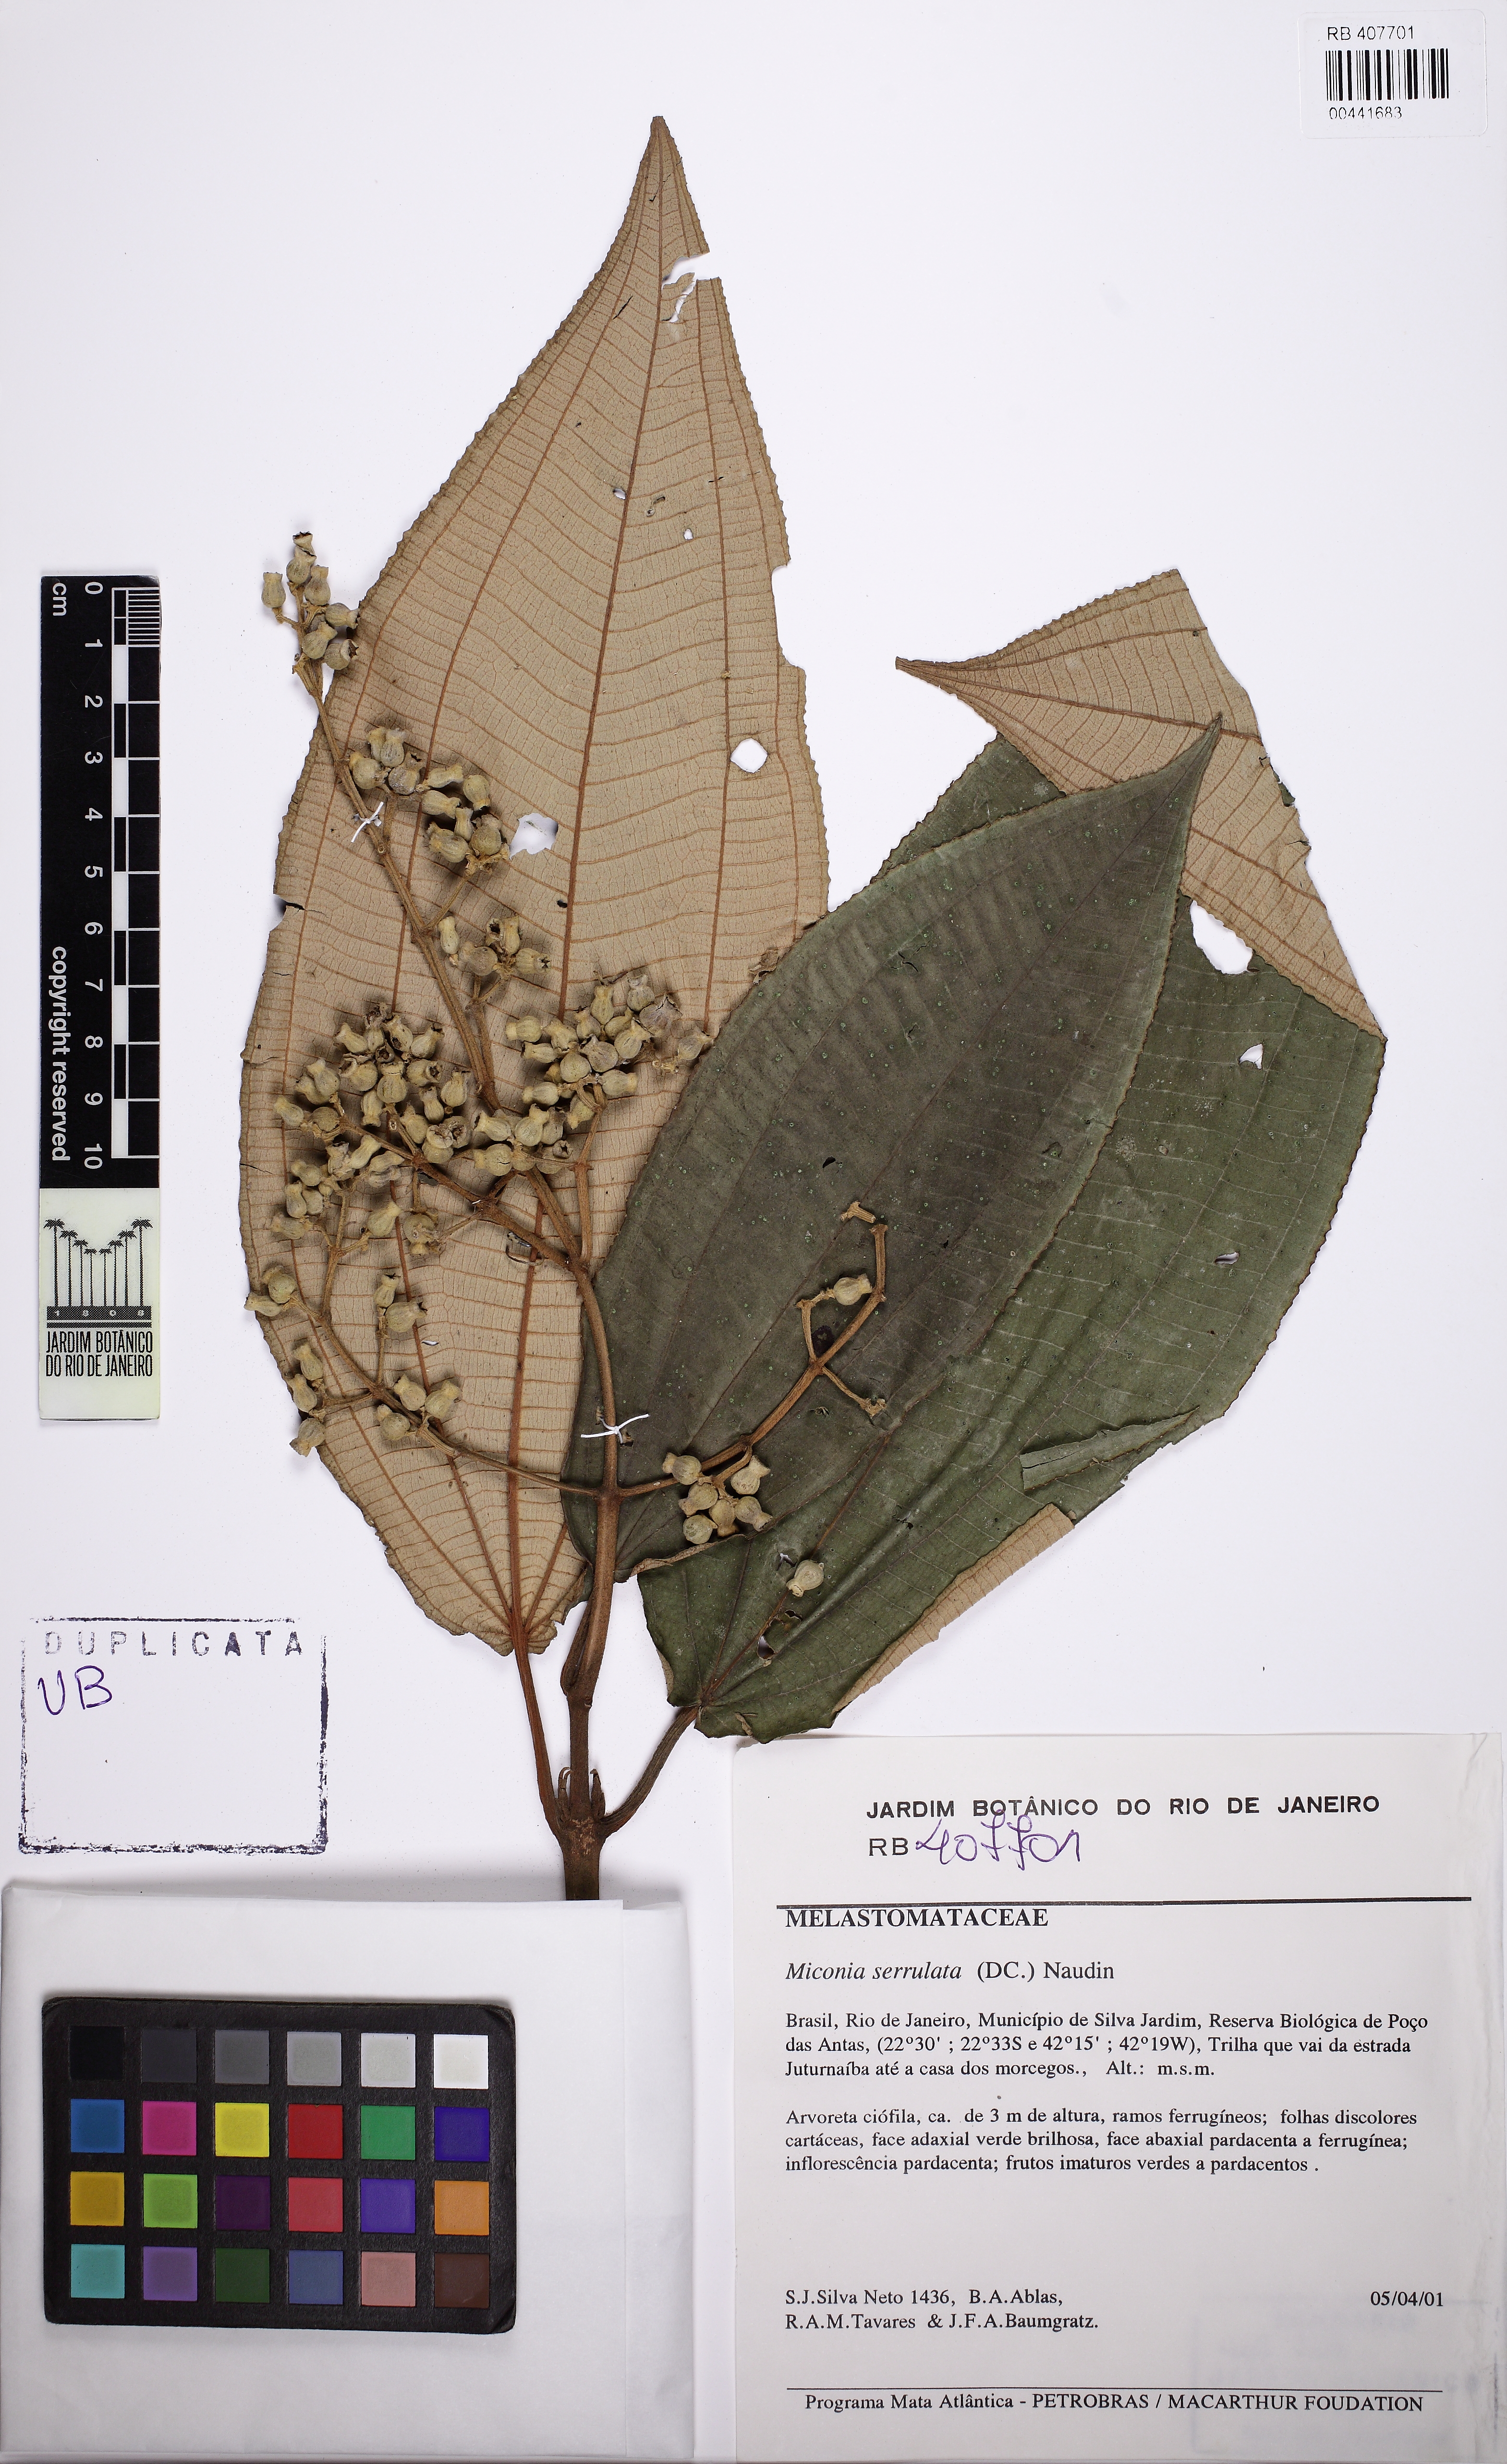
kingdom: Plantae
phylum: Tracheophyta
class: Magnoliopsida
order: Myrtales
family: Melastomataceae
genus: Miconia
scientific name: Miconia serrulata
